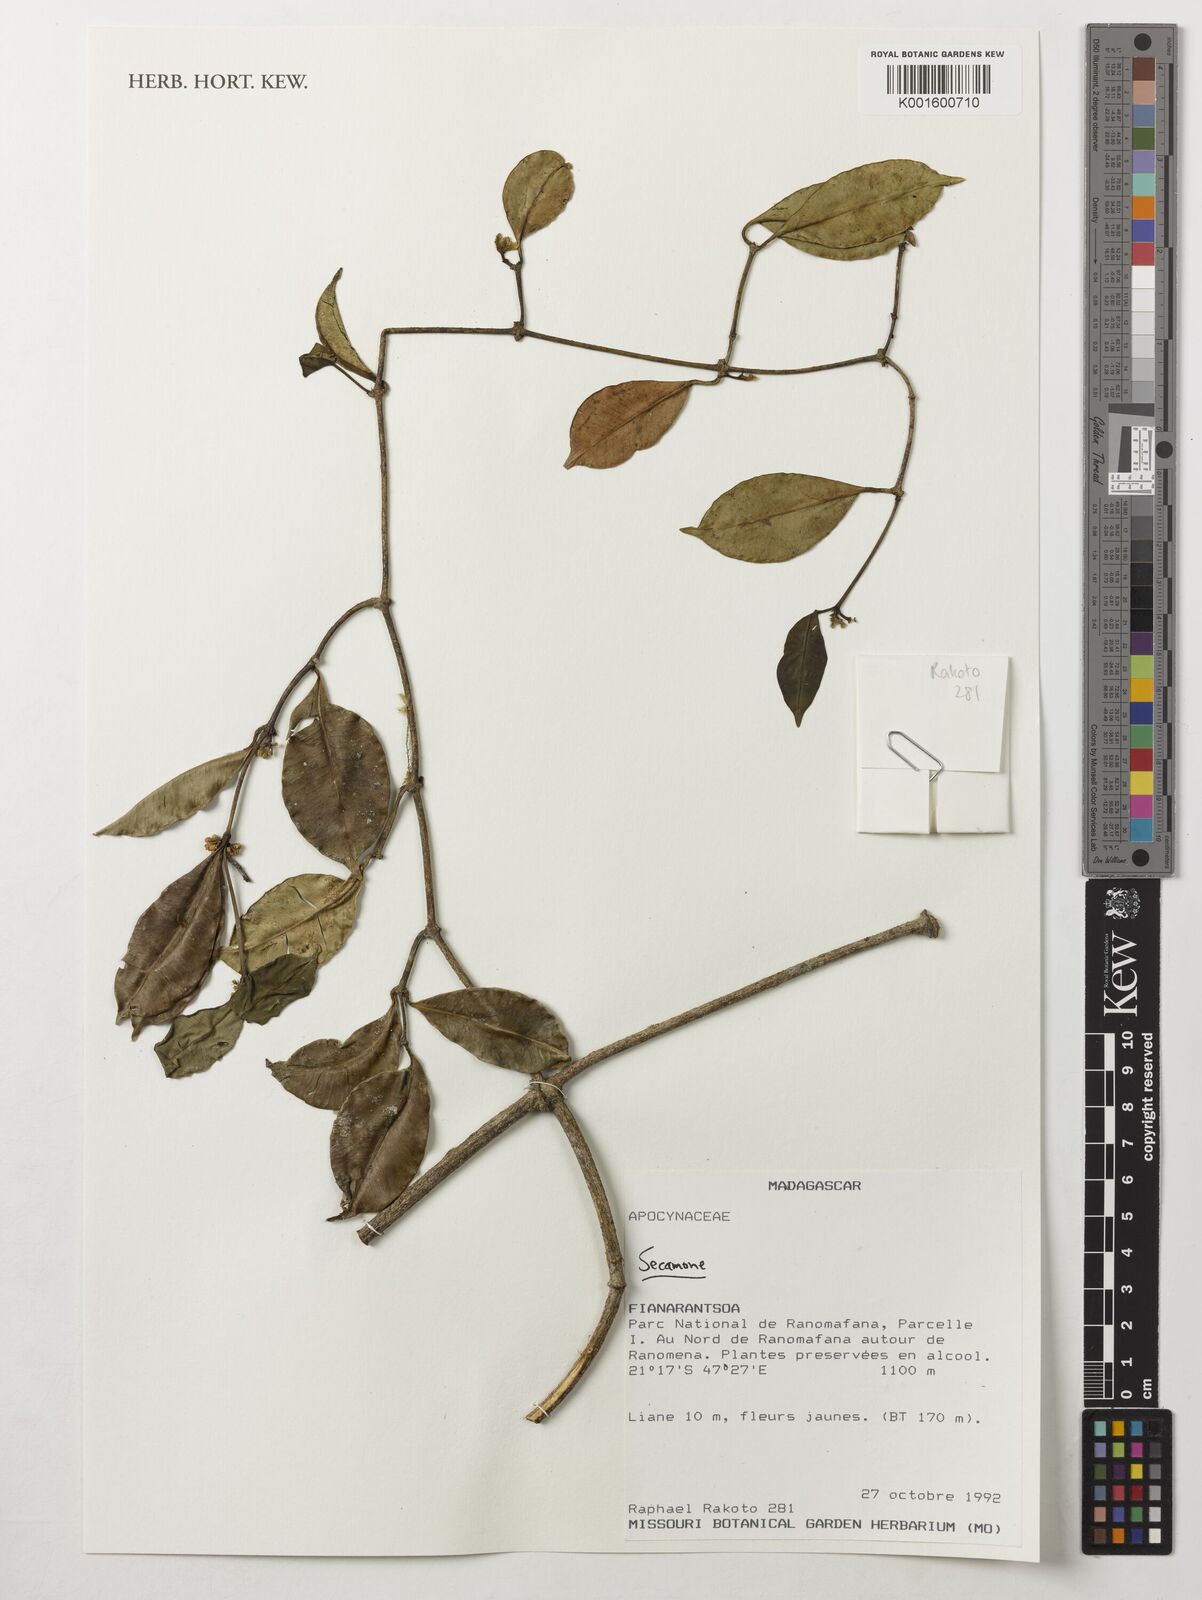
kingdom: Plantae
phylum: Tracheophyta
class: Magnoliopsida
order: Gentianales
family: Apocynaceae
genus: Secamone
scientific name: Secamone
